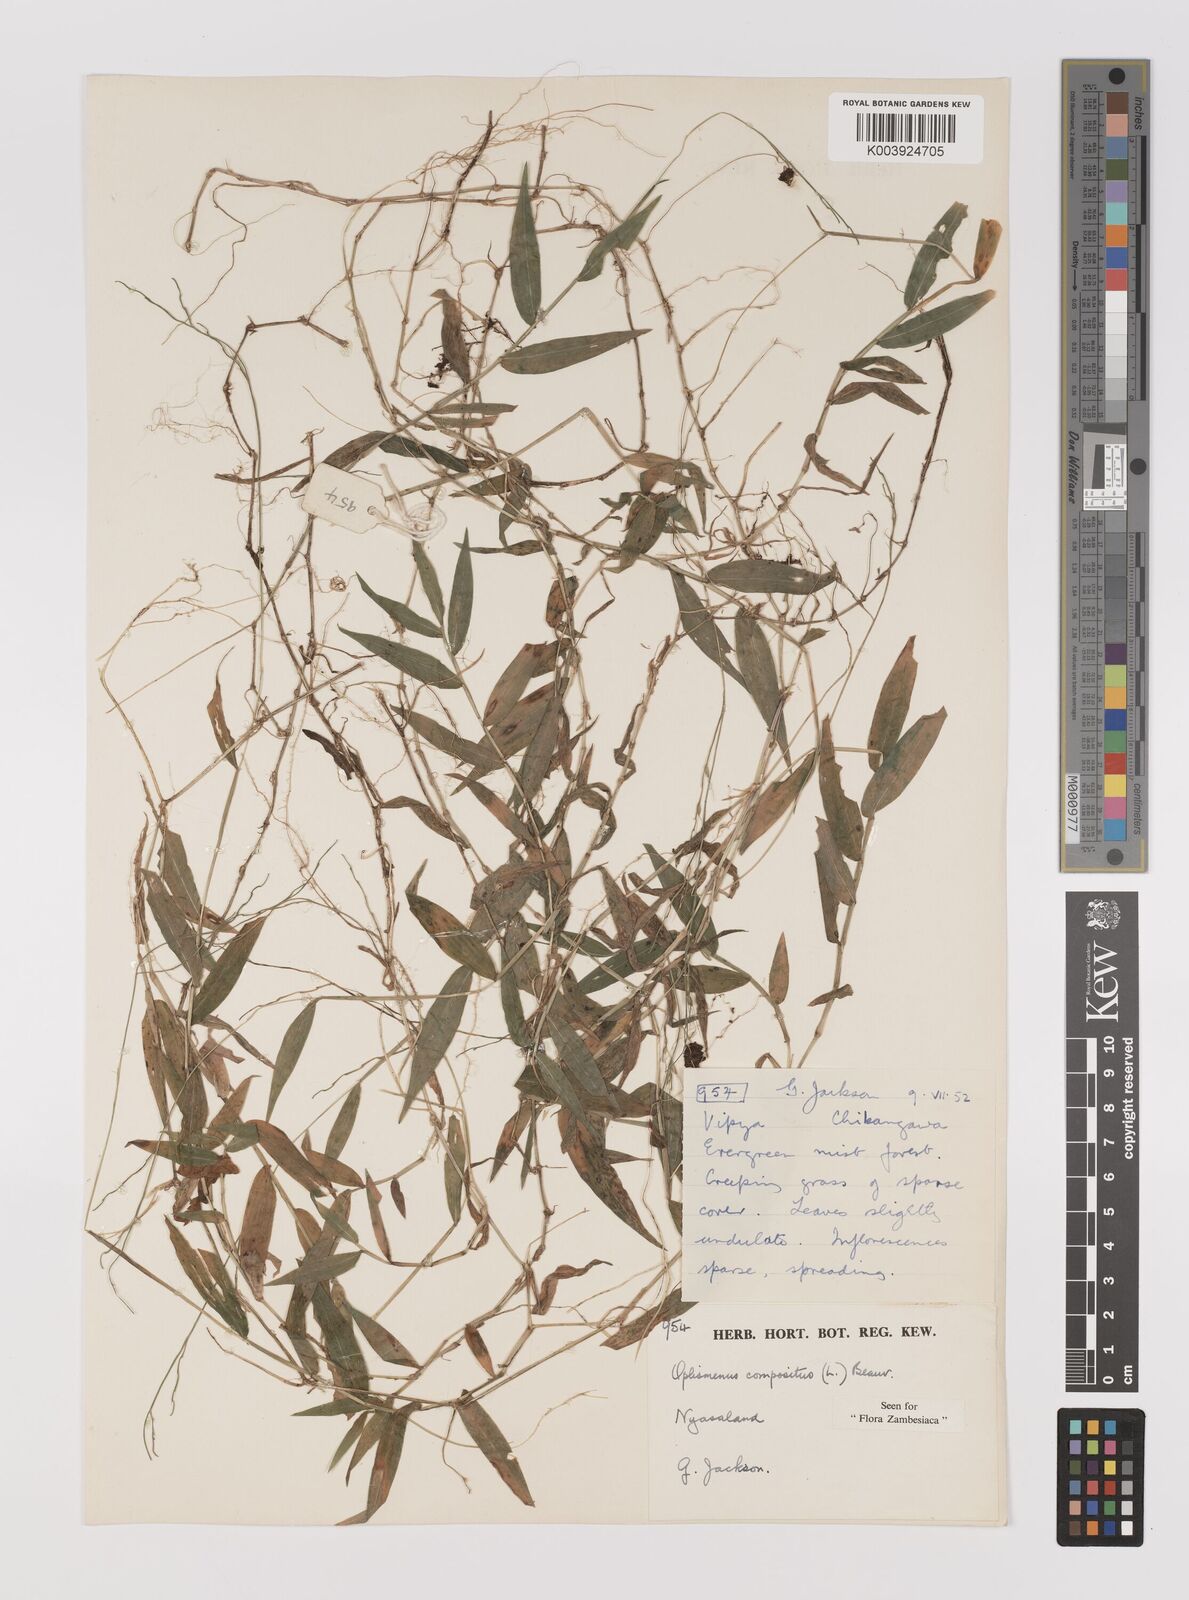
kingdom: Plantae
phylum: Tracheophyta
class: Liliopsida
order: Poales
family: Poaceae
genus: Oplismenus
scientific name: Oplismenus compositus
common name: Running mountain grass
